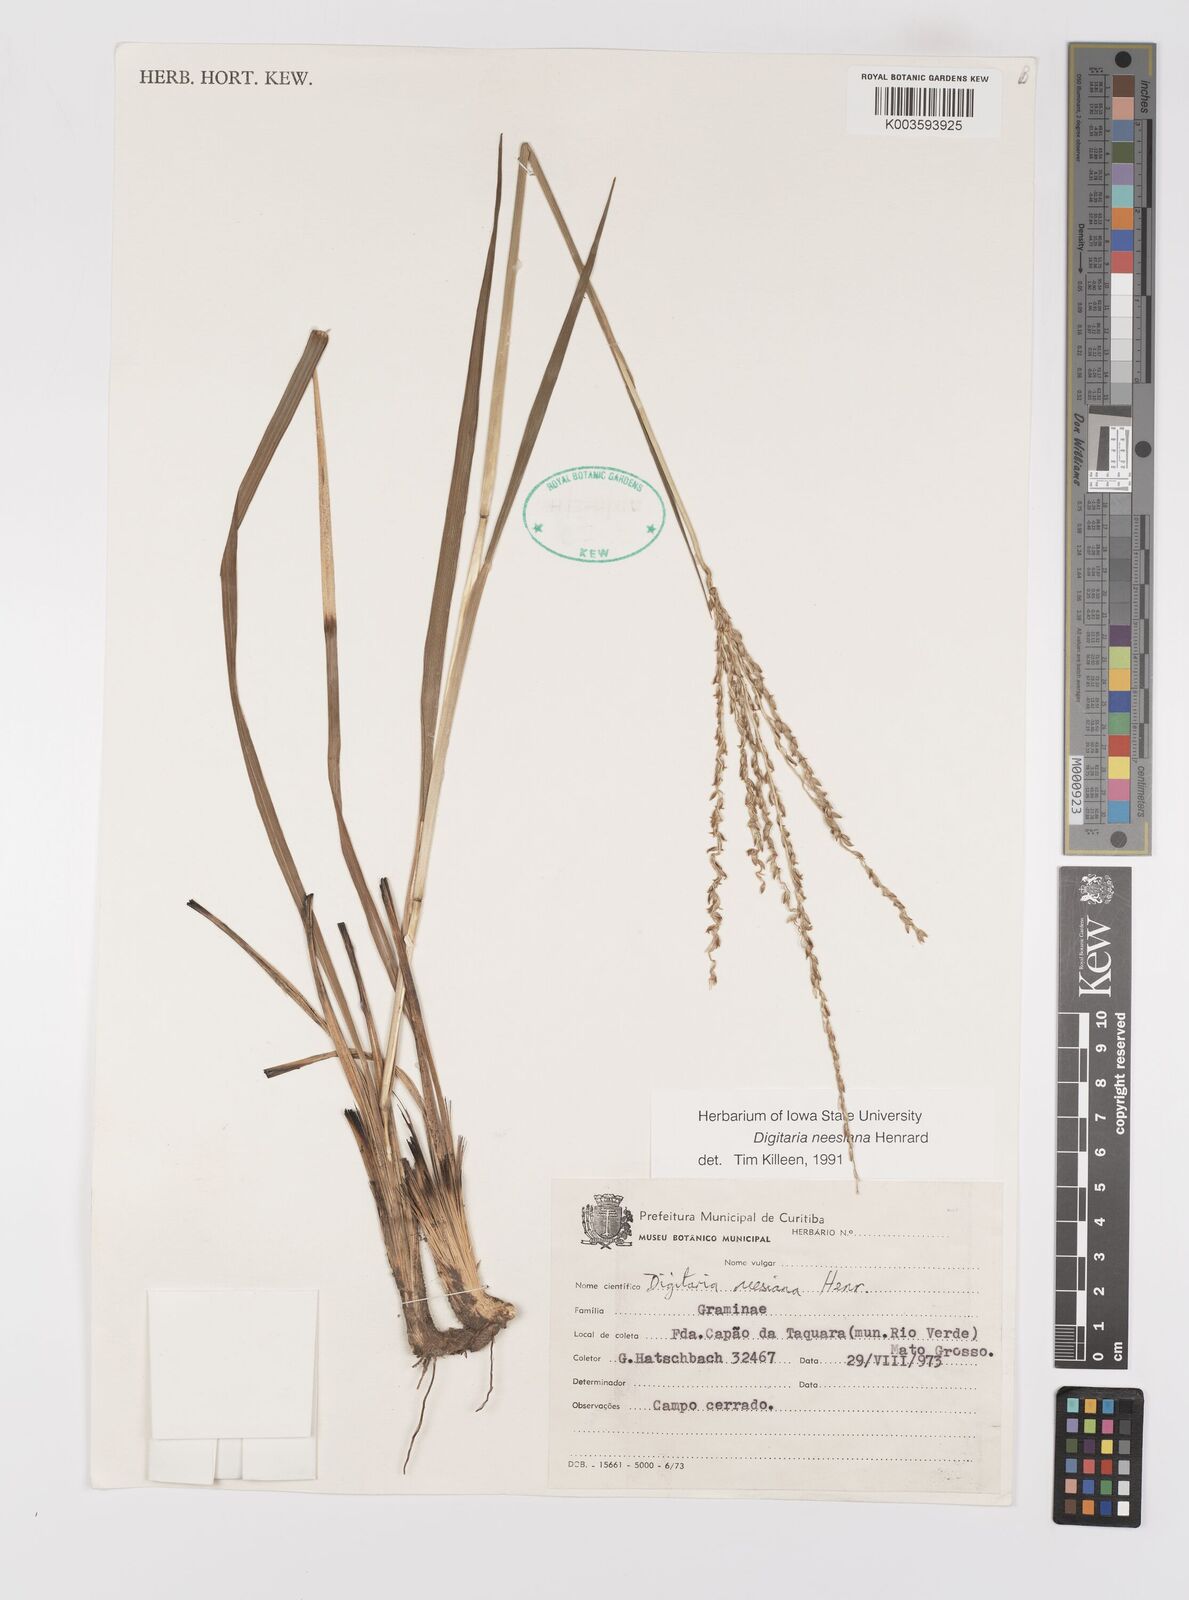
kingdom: Plantae
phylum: Tracheophyta
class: Liliopsida
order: Poales
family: Poaceae
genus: Digitaria
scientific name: Digitaria neesiana
